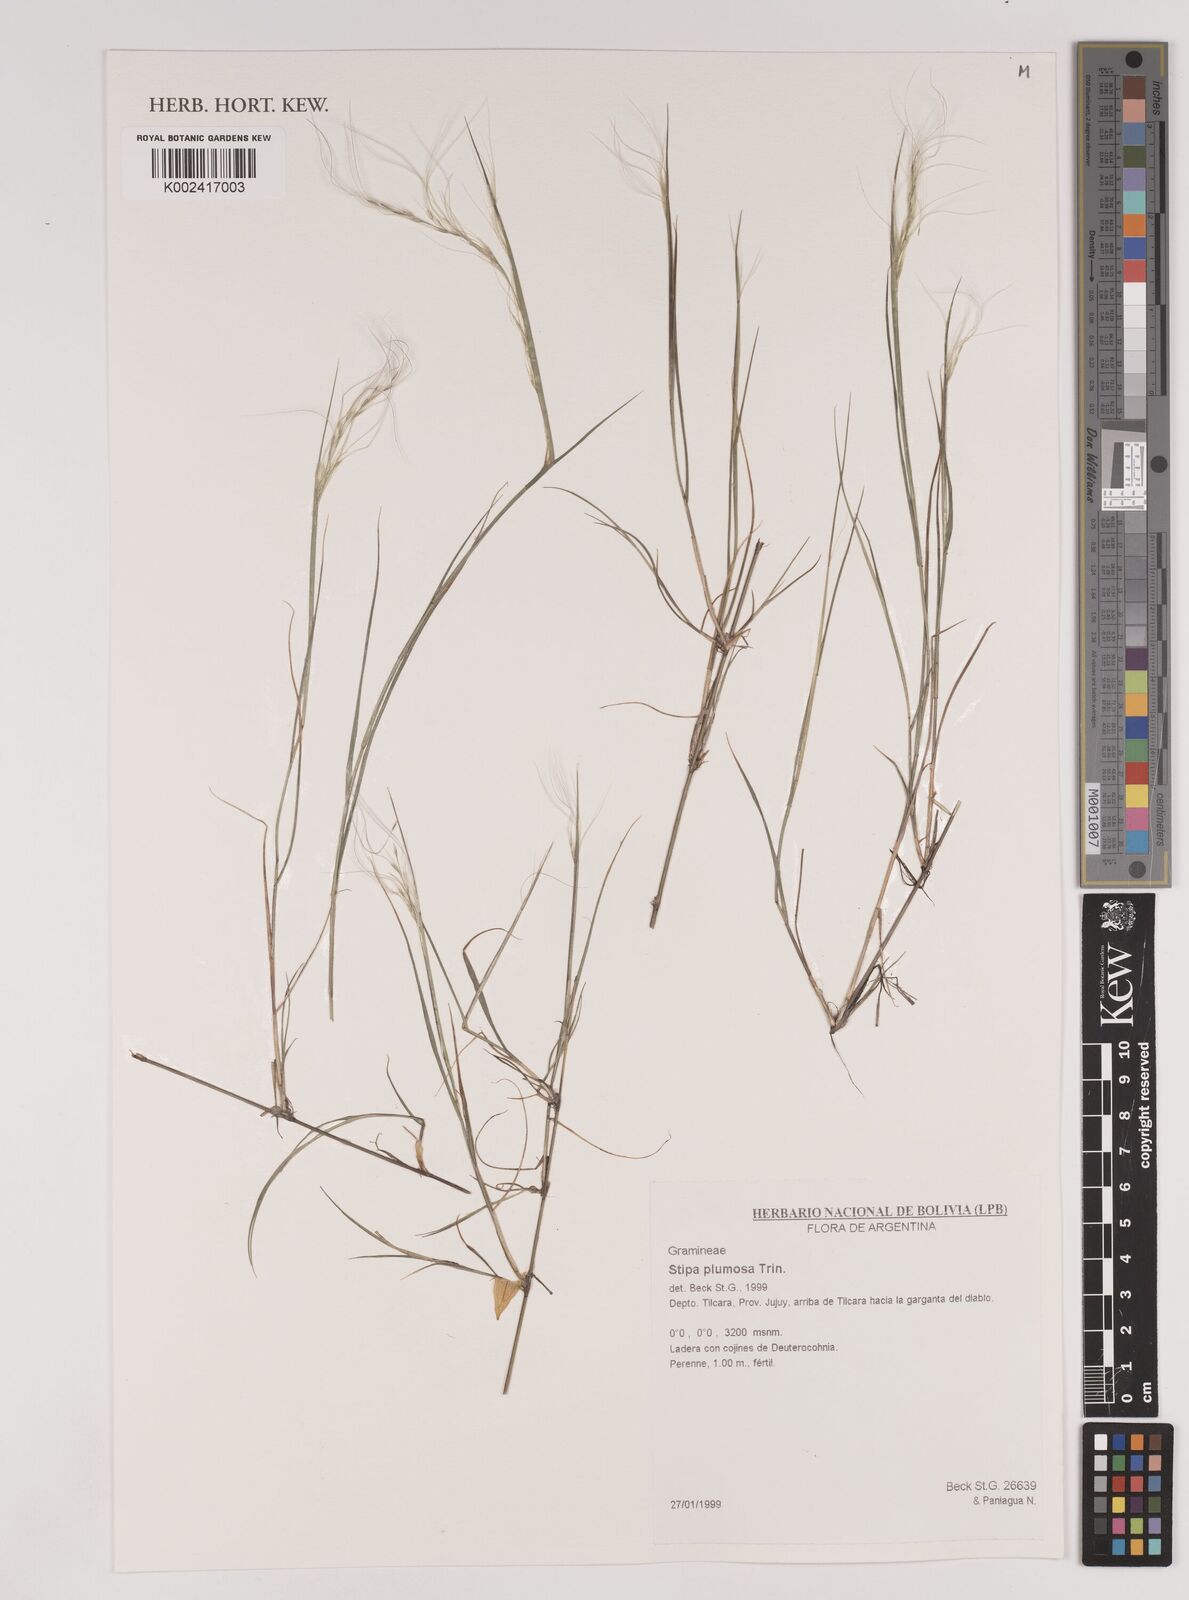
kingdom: Plantae
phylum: Tracheophyta
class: Liliopsida
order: Poales
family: Poaceae
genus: Stipa
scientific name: Stipa plumosa
